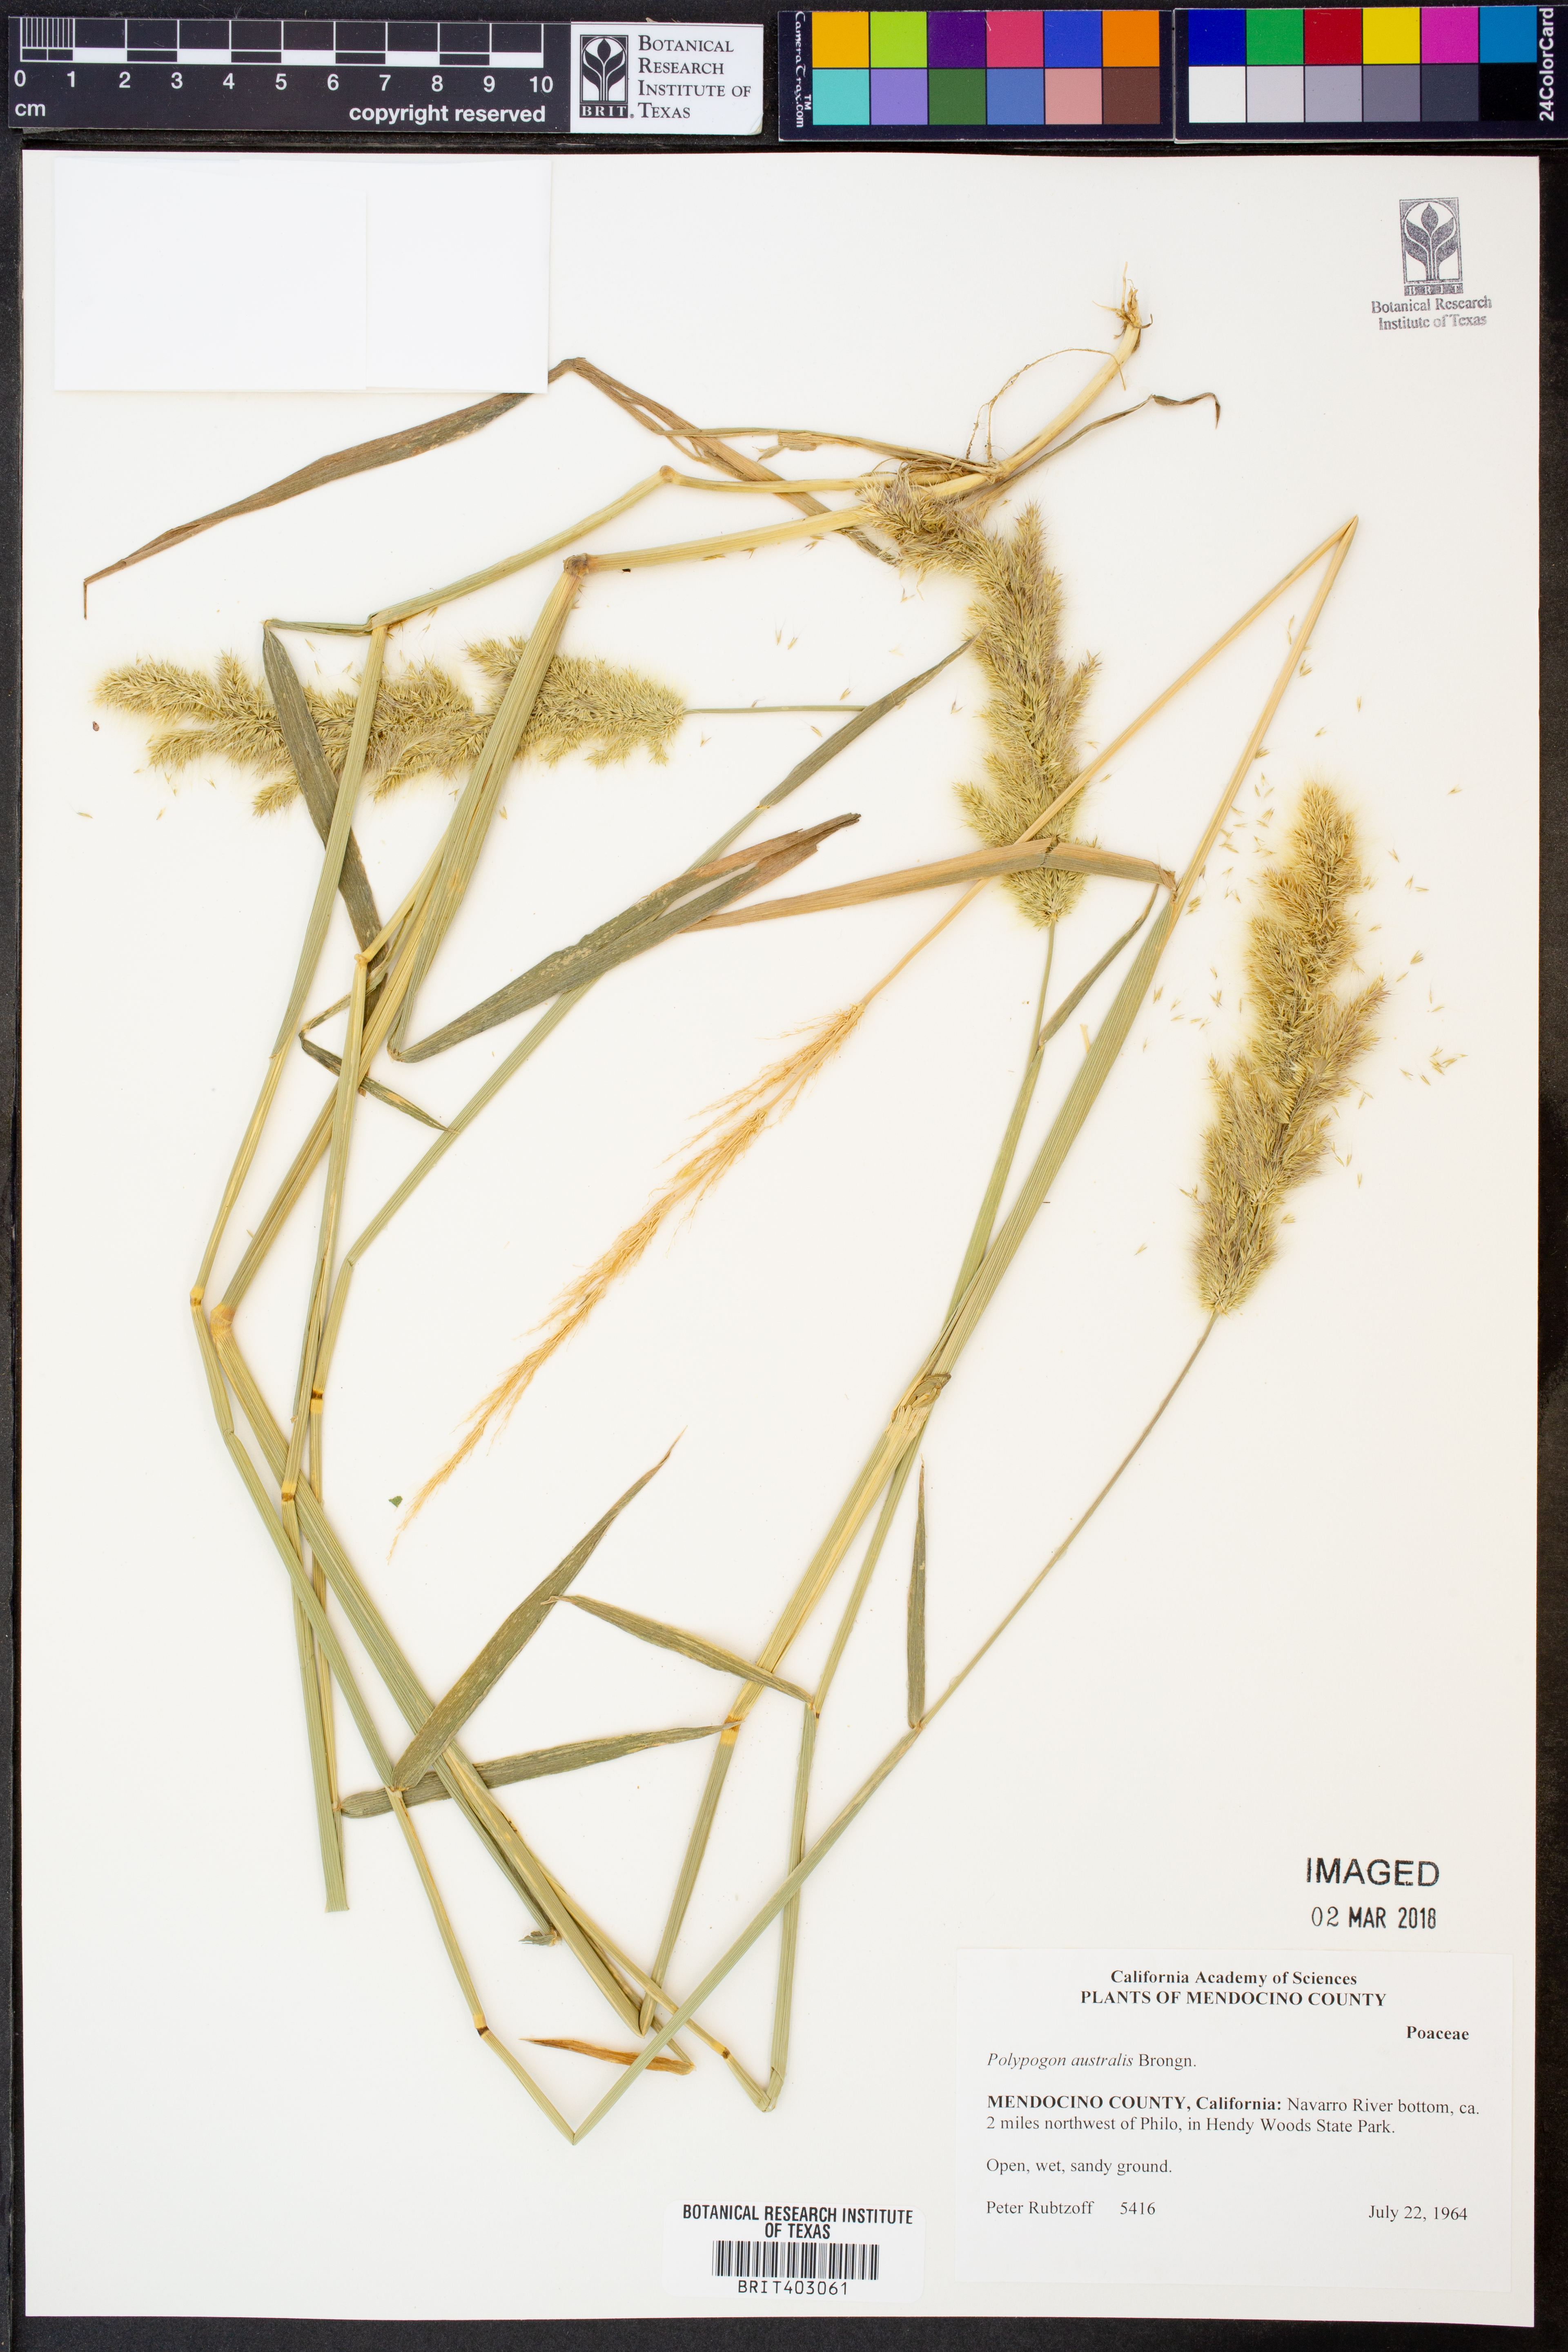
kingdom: Plantae
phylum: Tracheophyta
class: Liliopsida
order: Poales
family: Poaceae
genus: Polypogon
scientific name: Polypogon australis
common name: Chilean rabbitsfoot grass
